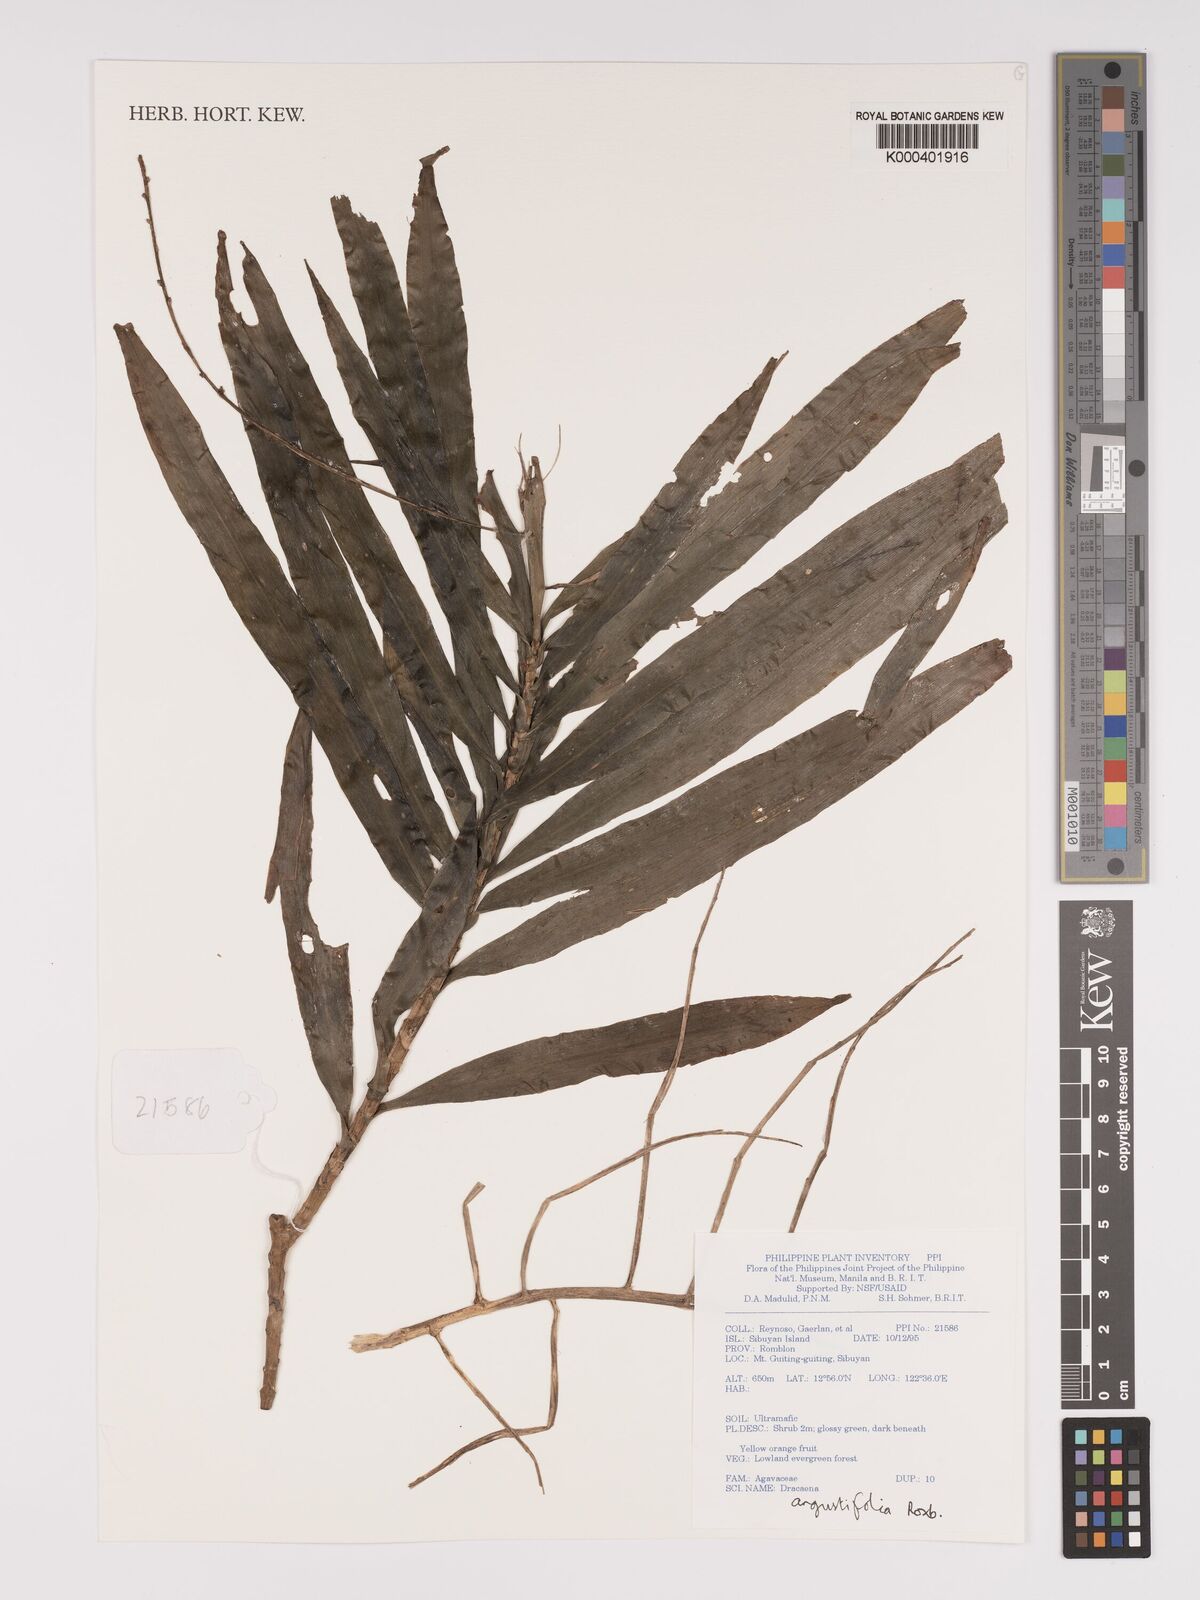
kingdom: Plantae
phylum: Tracheophyta
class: Liliopsida
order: Asparagales
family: Asparagaceae
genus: Dracaena
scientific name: Dracaena angustifolia
